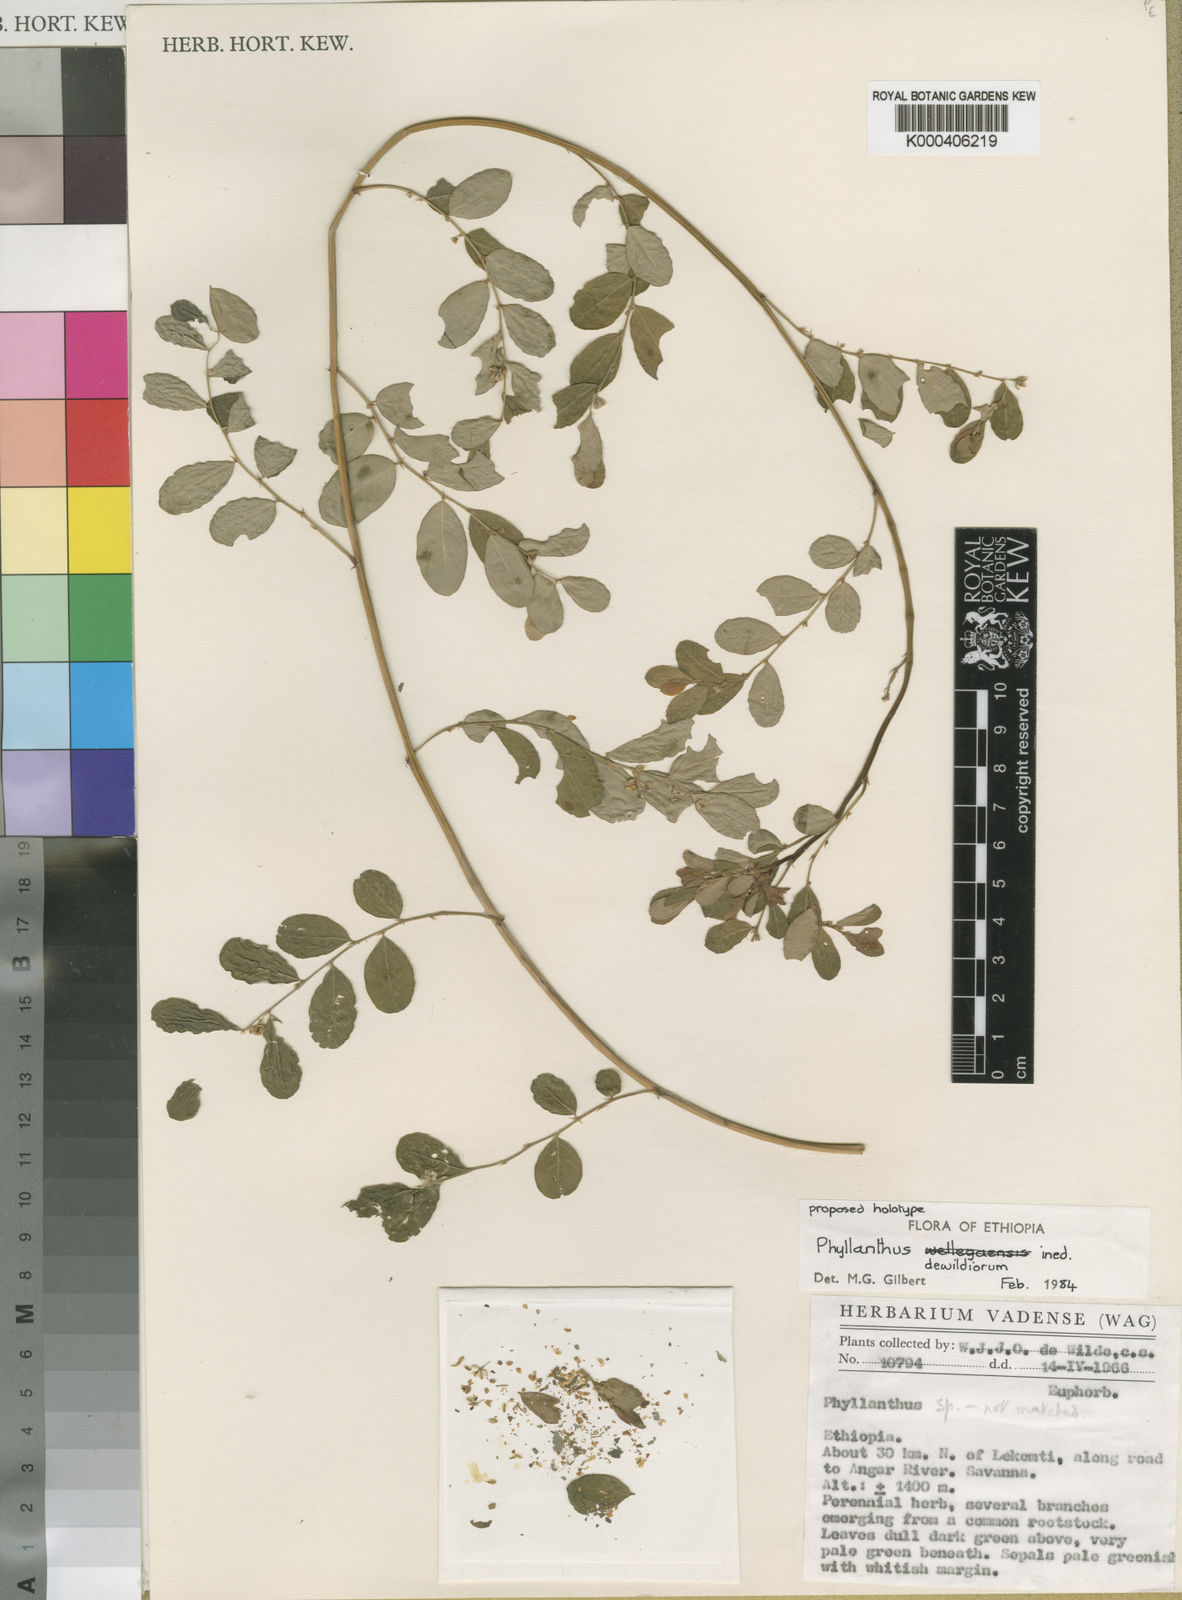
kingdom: Plantae
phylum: Tracheophyta
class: Magnoliopsida
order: Malpighiales
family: Phyllanthaceae
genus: Phyllanthus
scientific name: Phyllanthus dewildeorum
